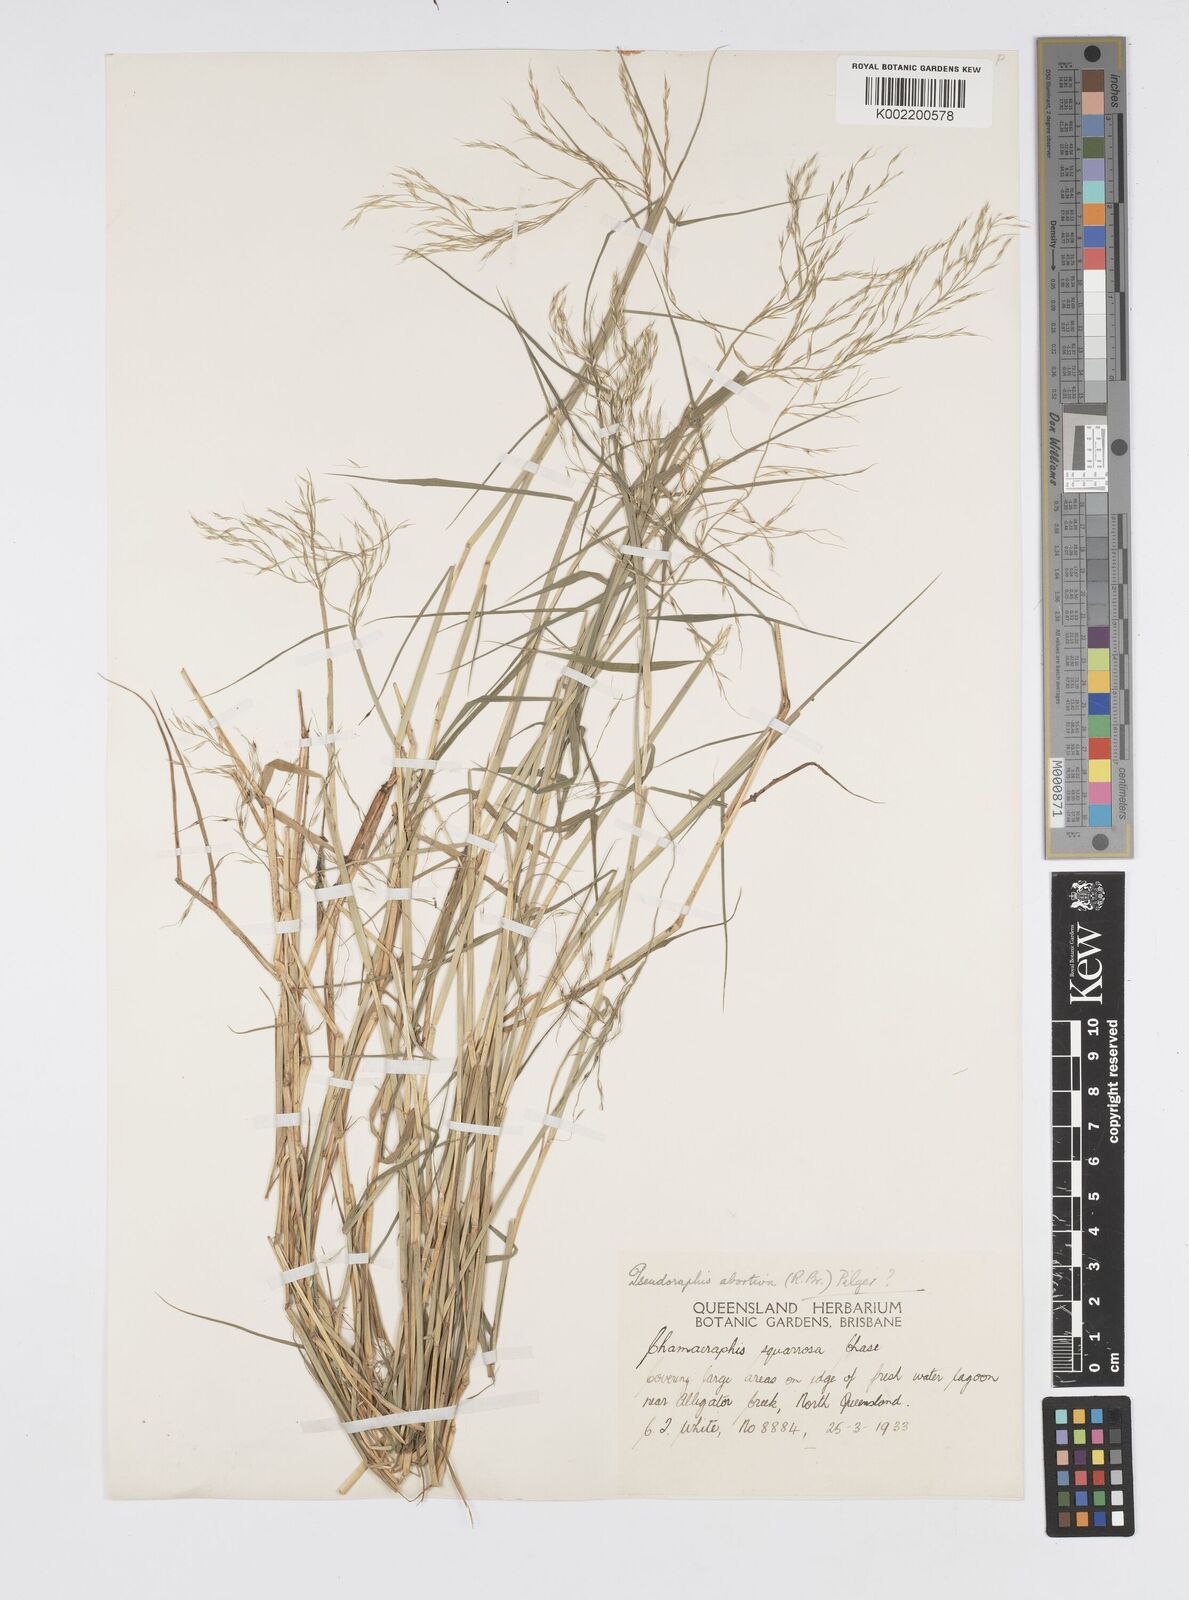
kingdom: Plantae
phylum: Tracheophyta
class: Liliopsida
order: Poales
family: Poaceae
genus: Pseudoraphis
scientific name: Pseudoraphis spinescens
